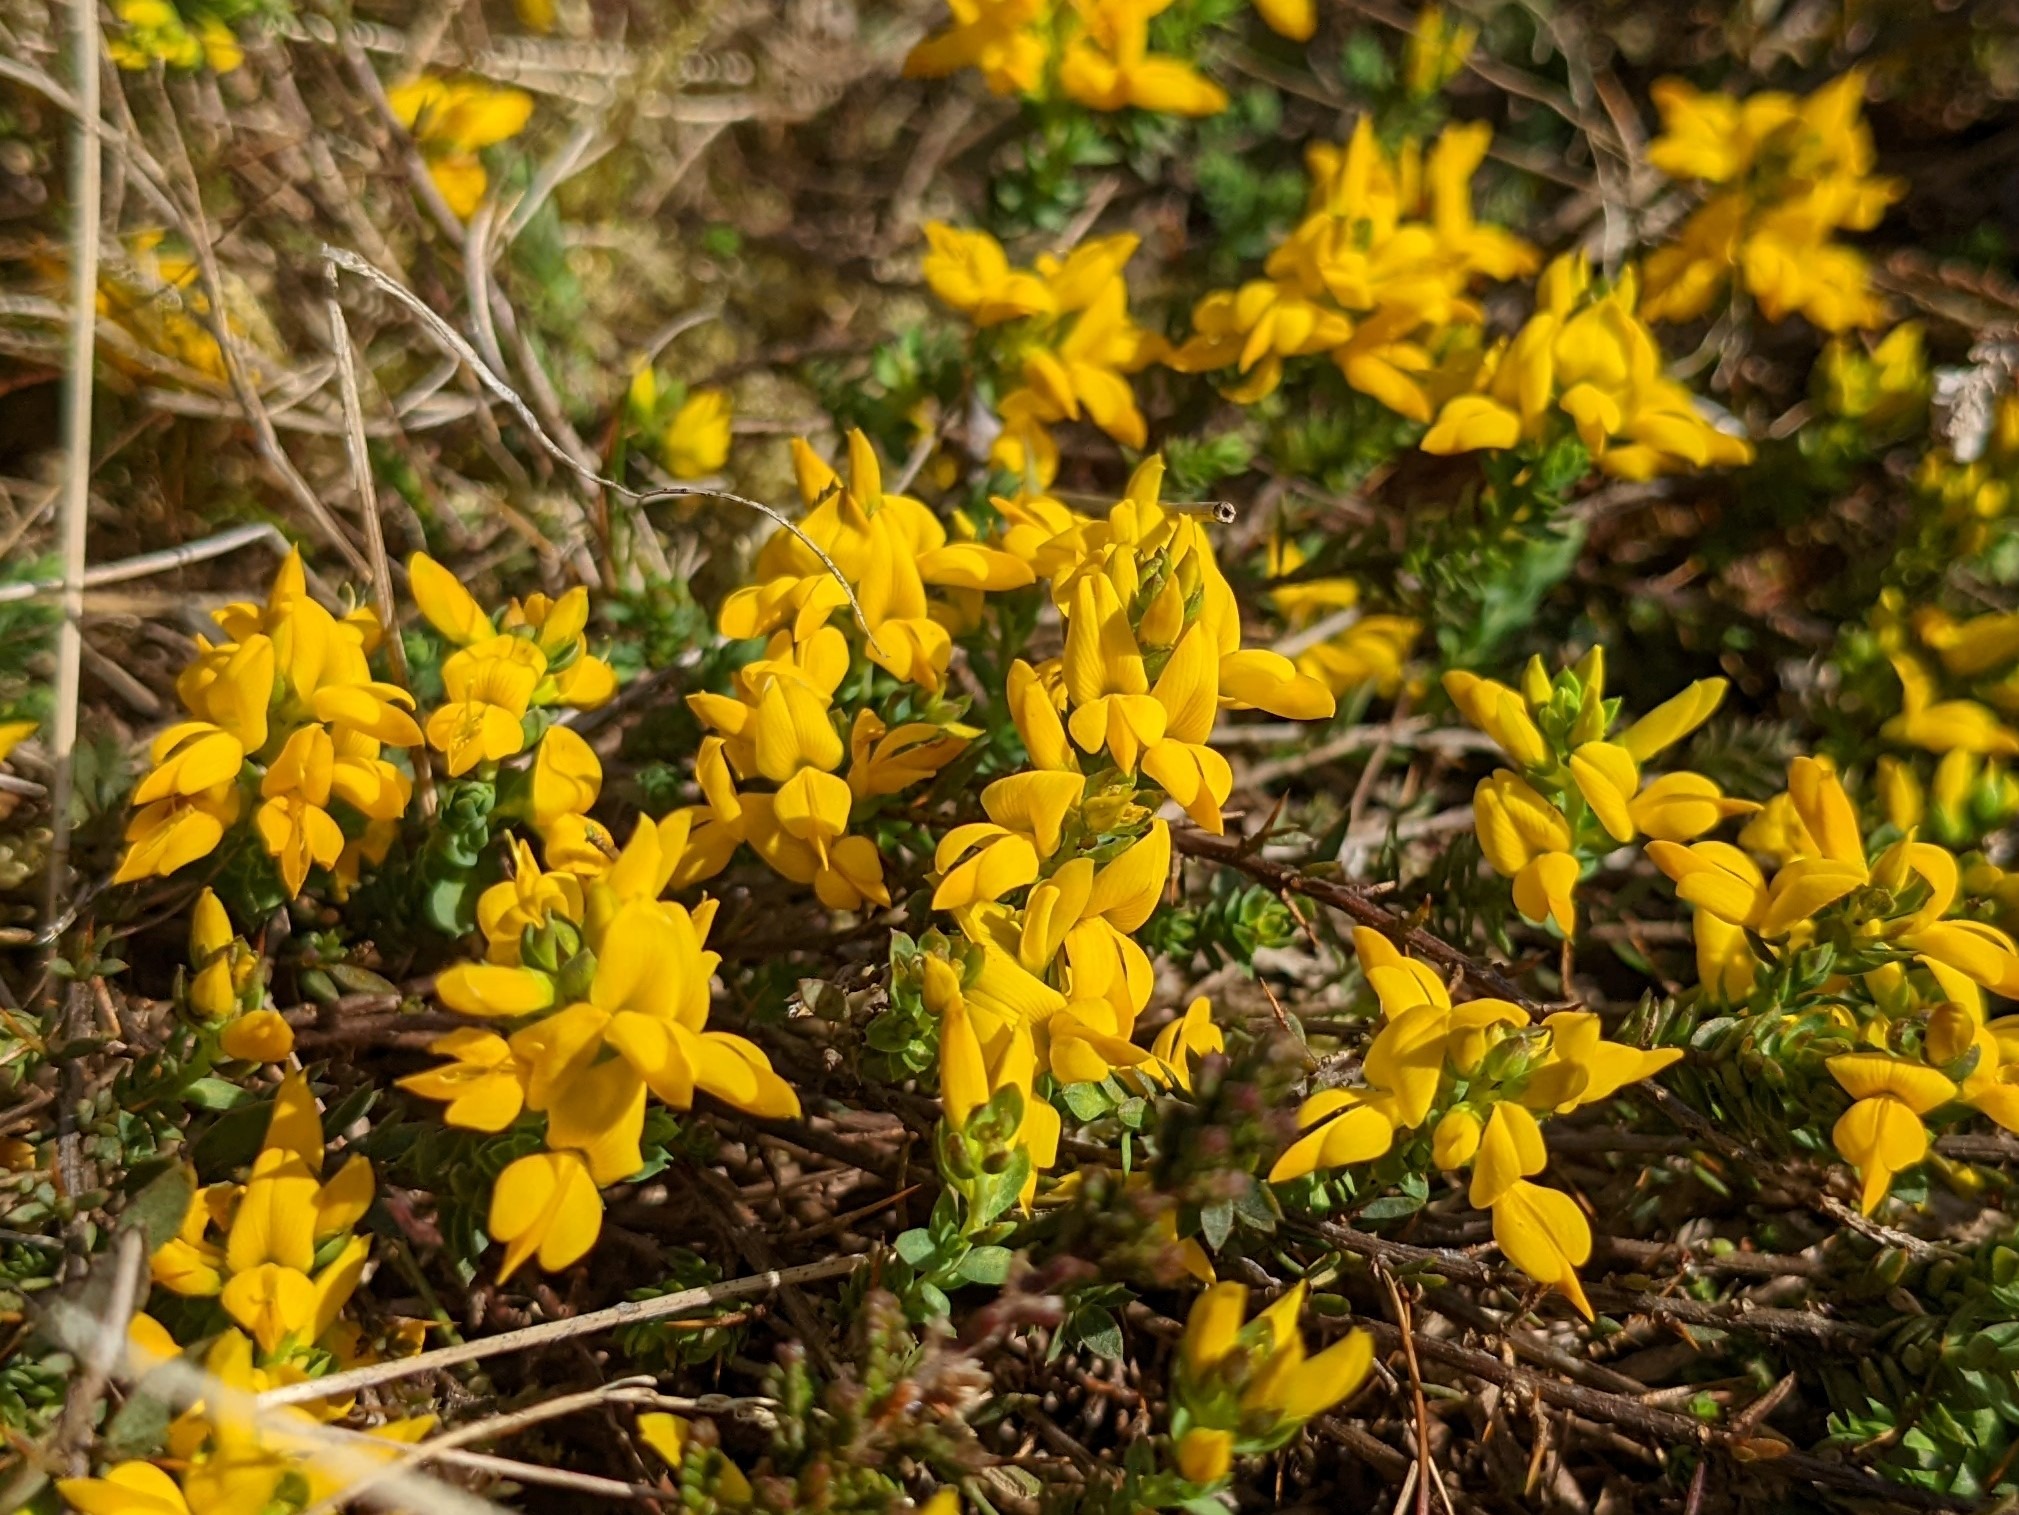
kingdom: Plantae
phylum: Tracheophyta
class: Magnoliopsida
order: Fabales
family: Fabaceae
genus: Genista
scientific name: Genista anglica
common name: Engelsk visse
